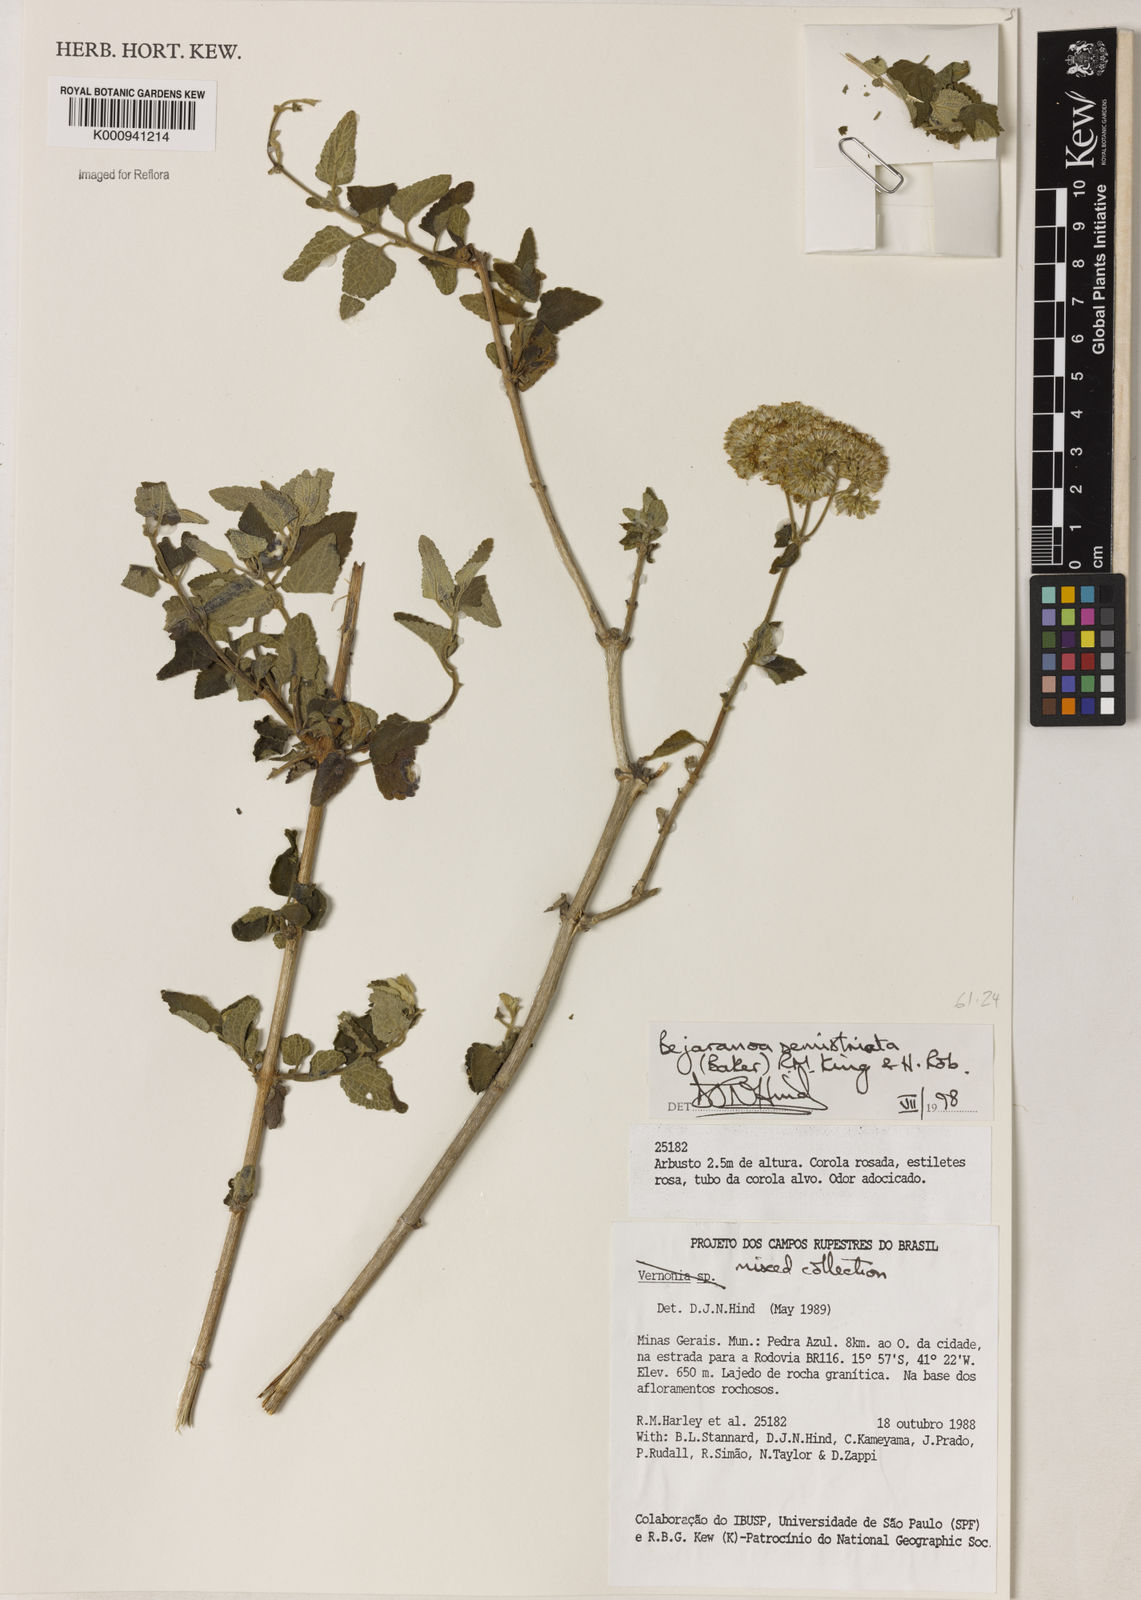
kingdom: Plantae
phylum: Tracheophyta
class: Magnoliopsida
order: Asterales
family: Asteraceae
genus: Bejaranoa
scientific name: Bejaranoa semistriata
